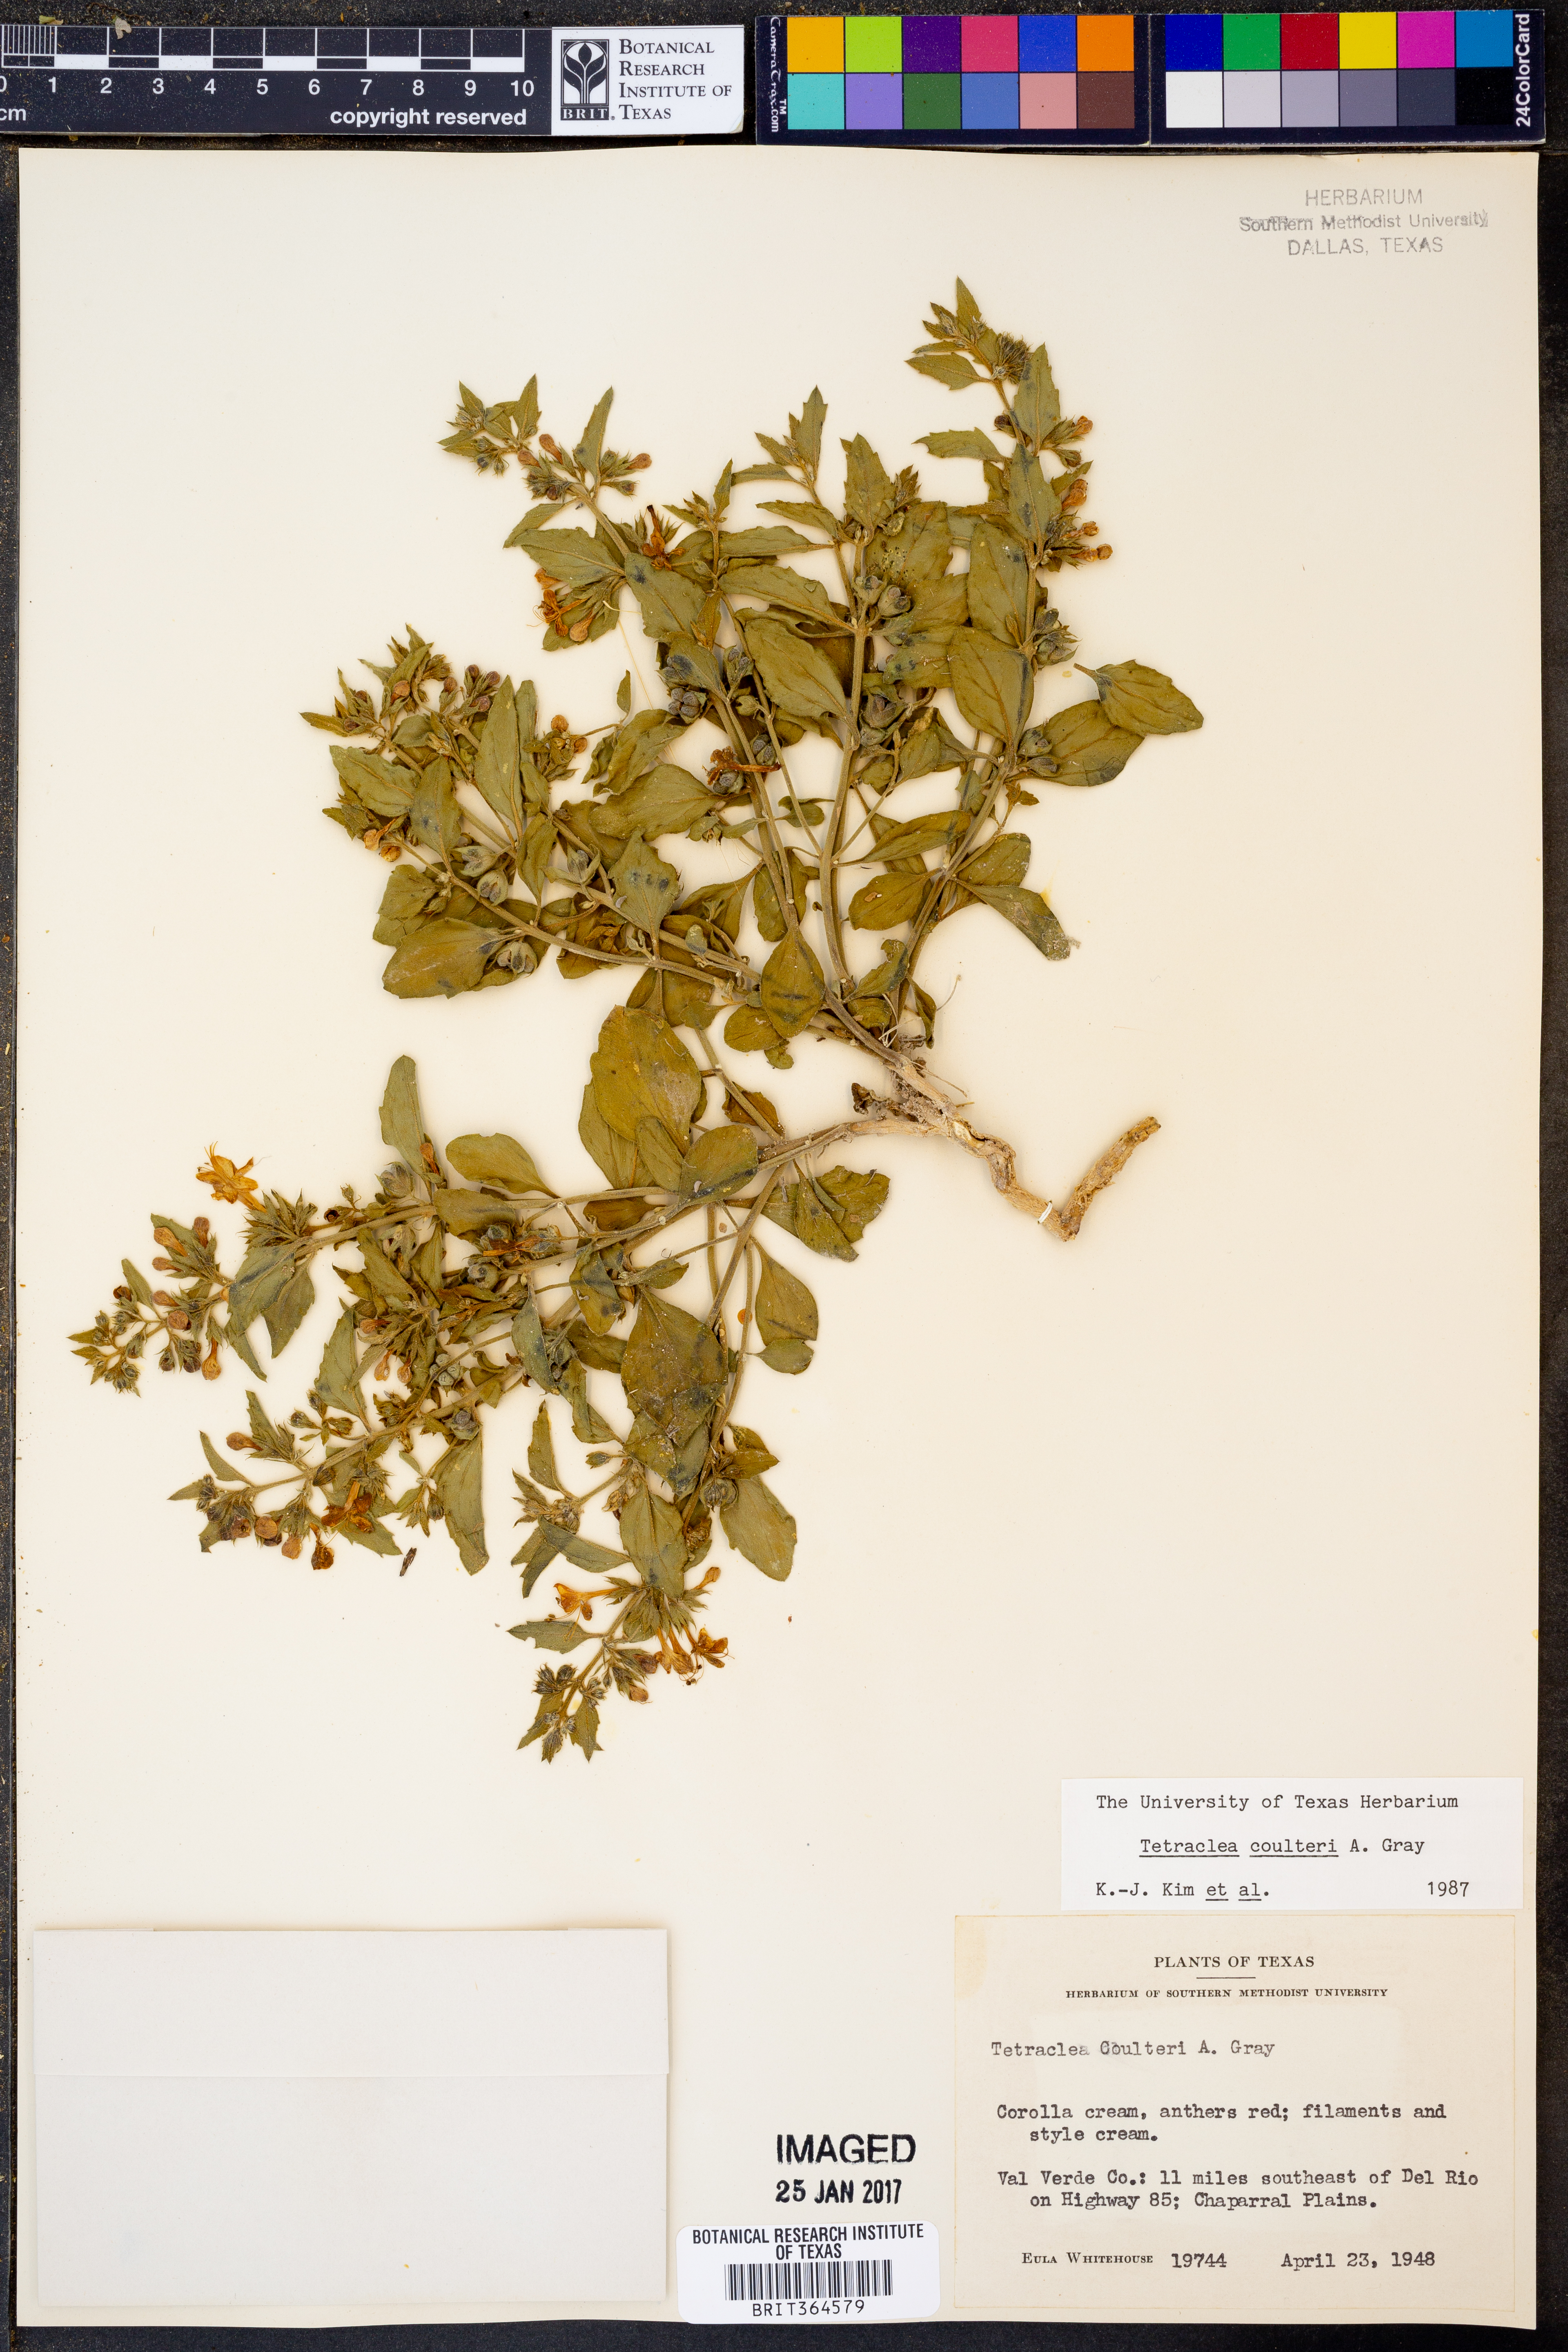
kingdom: Plantae
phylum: Tracheophyta
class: Magnoliopsida
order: Lamiales
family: Lamiaceae
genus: Tetraclea
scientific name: Tetraclea coulteri
